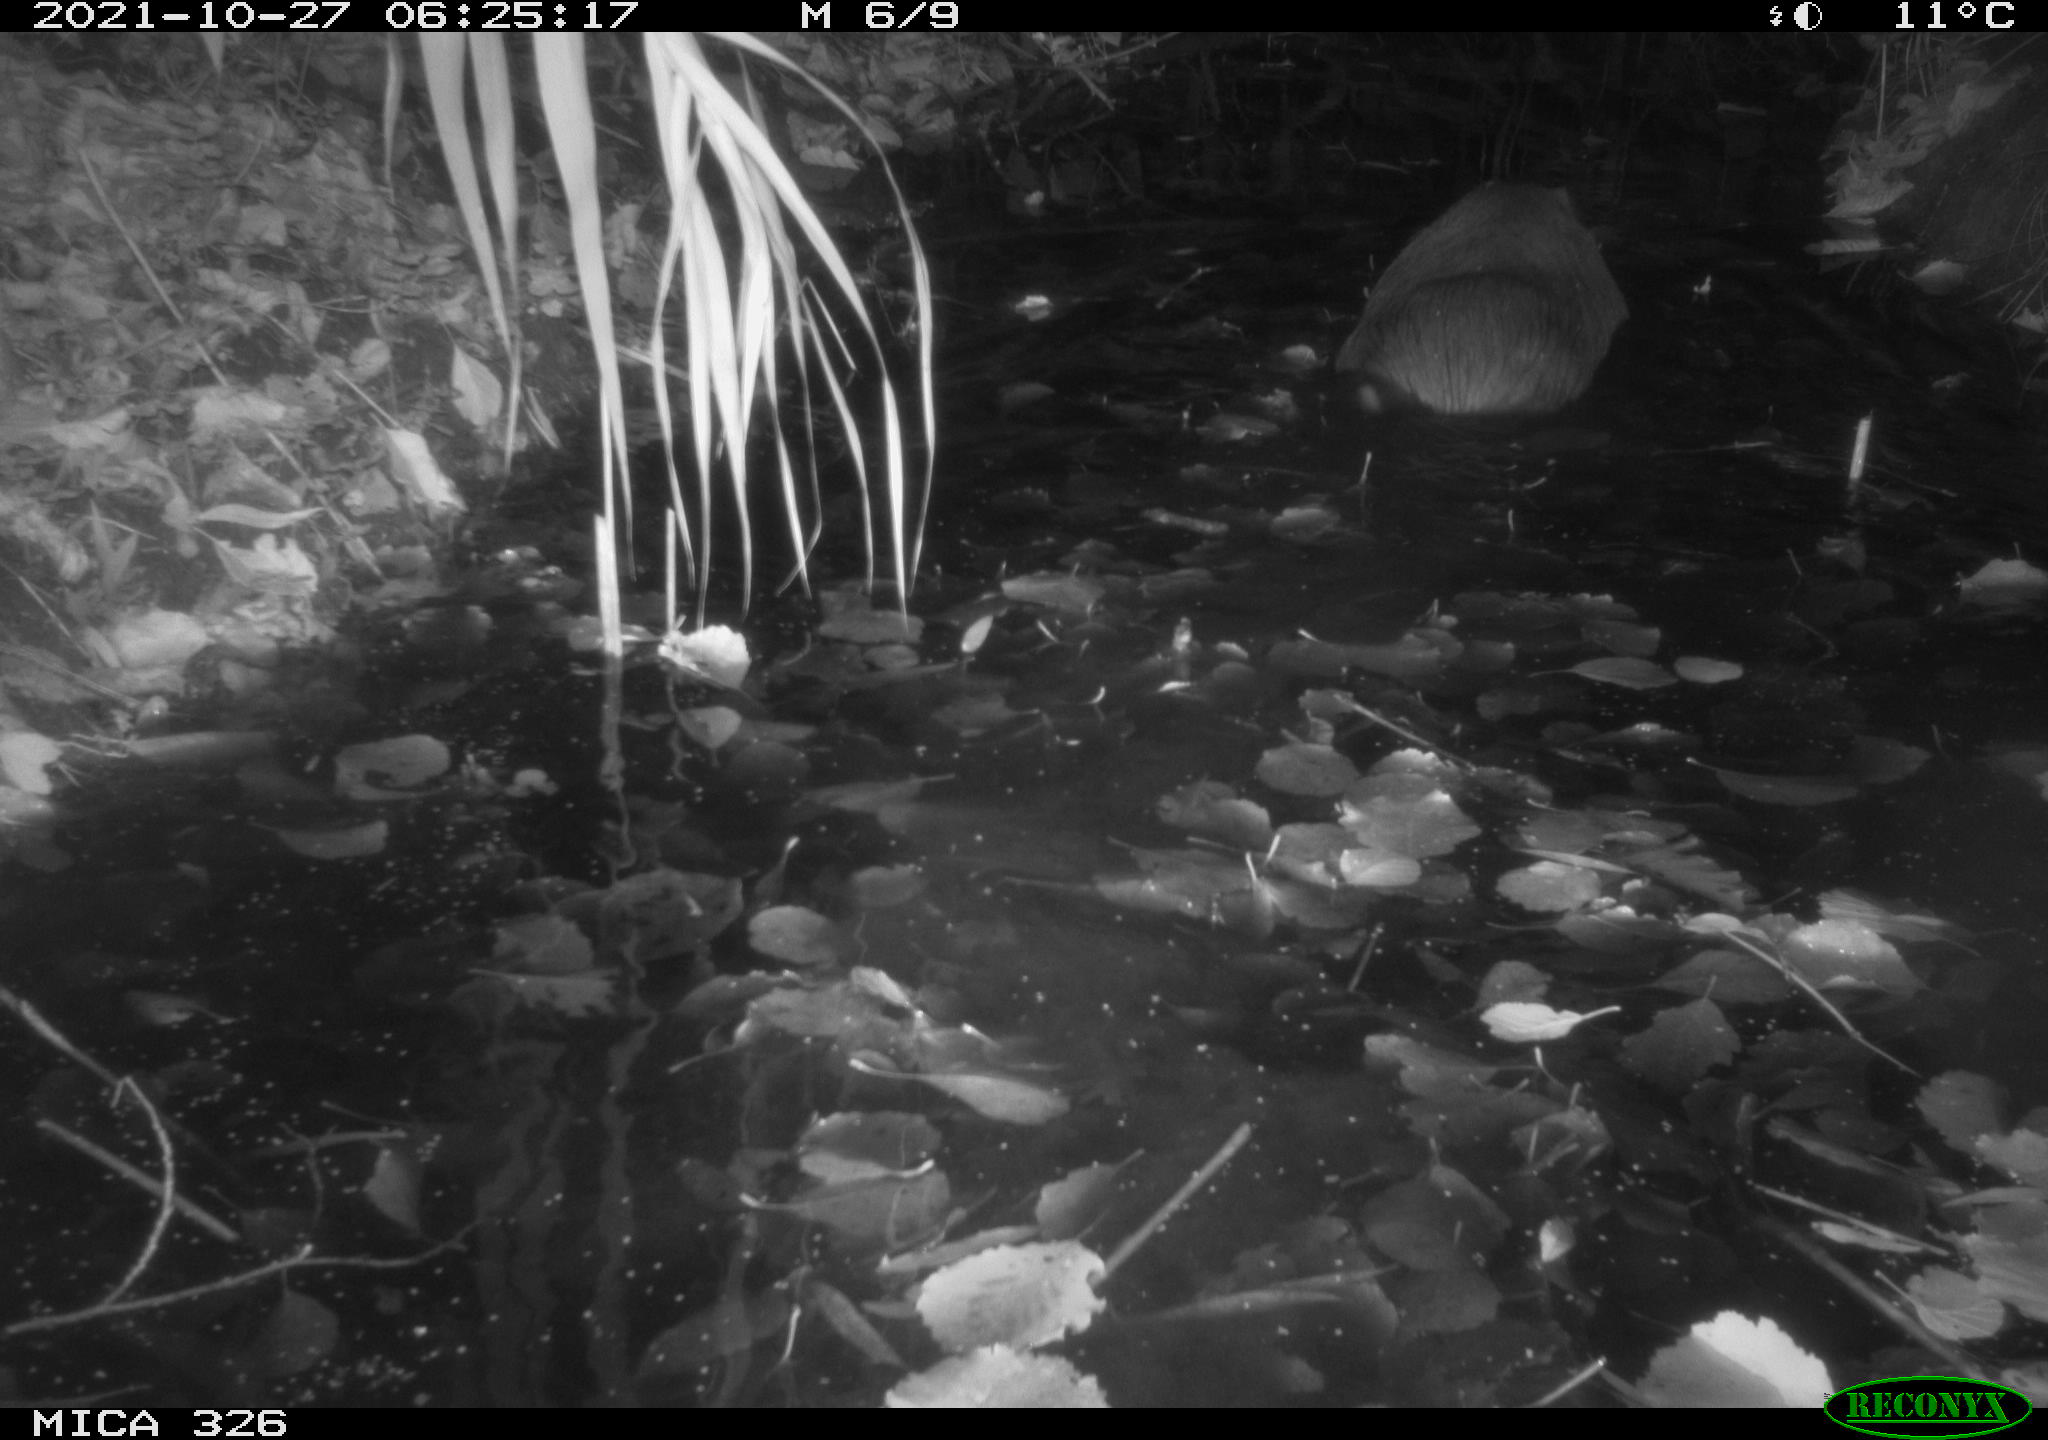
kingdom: Animalia
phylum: Chordata
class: Mammalia
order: Rodentia
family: Myocastoridae
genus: Myocastor
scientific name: Myocastor coypus
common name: Coypu
